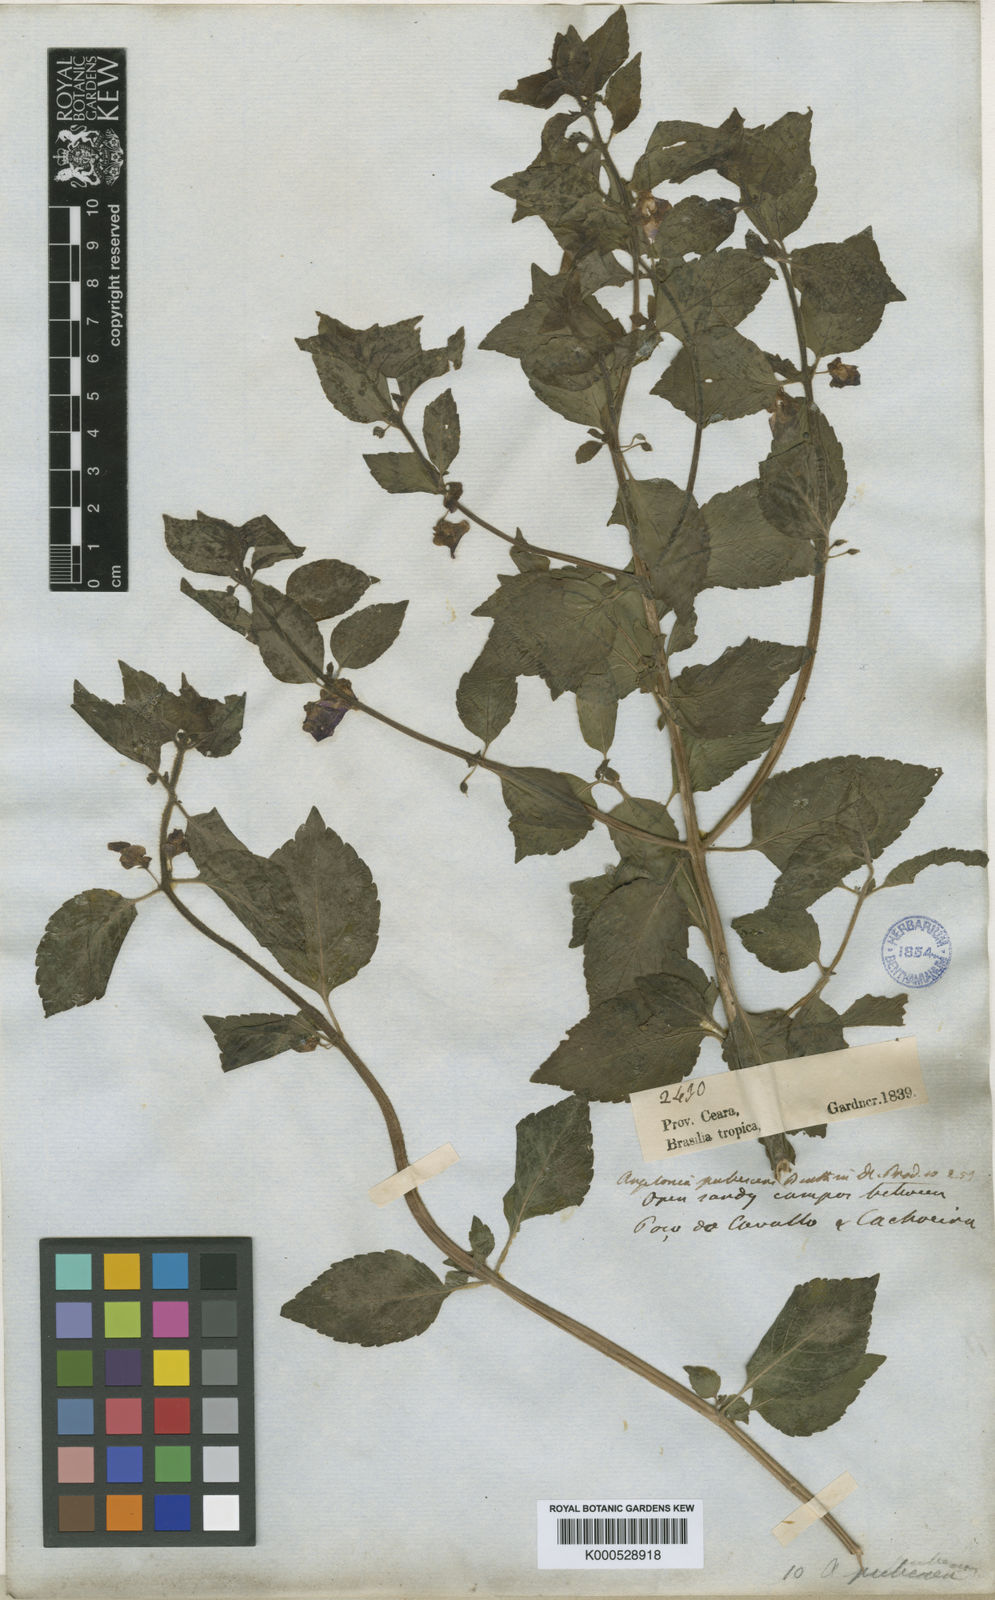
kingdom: Plantae
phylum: Tracheophyta
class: Magnoliopsida
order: Lamiales
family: Plantaginaceae
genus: Angelonia
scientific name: Angelonia pubescens
